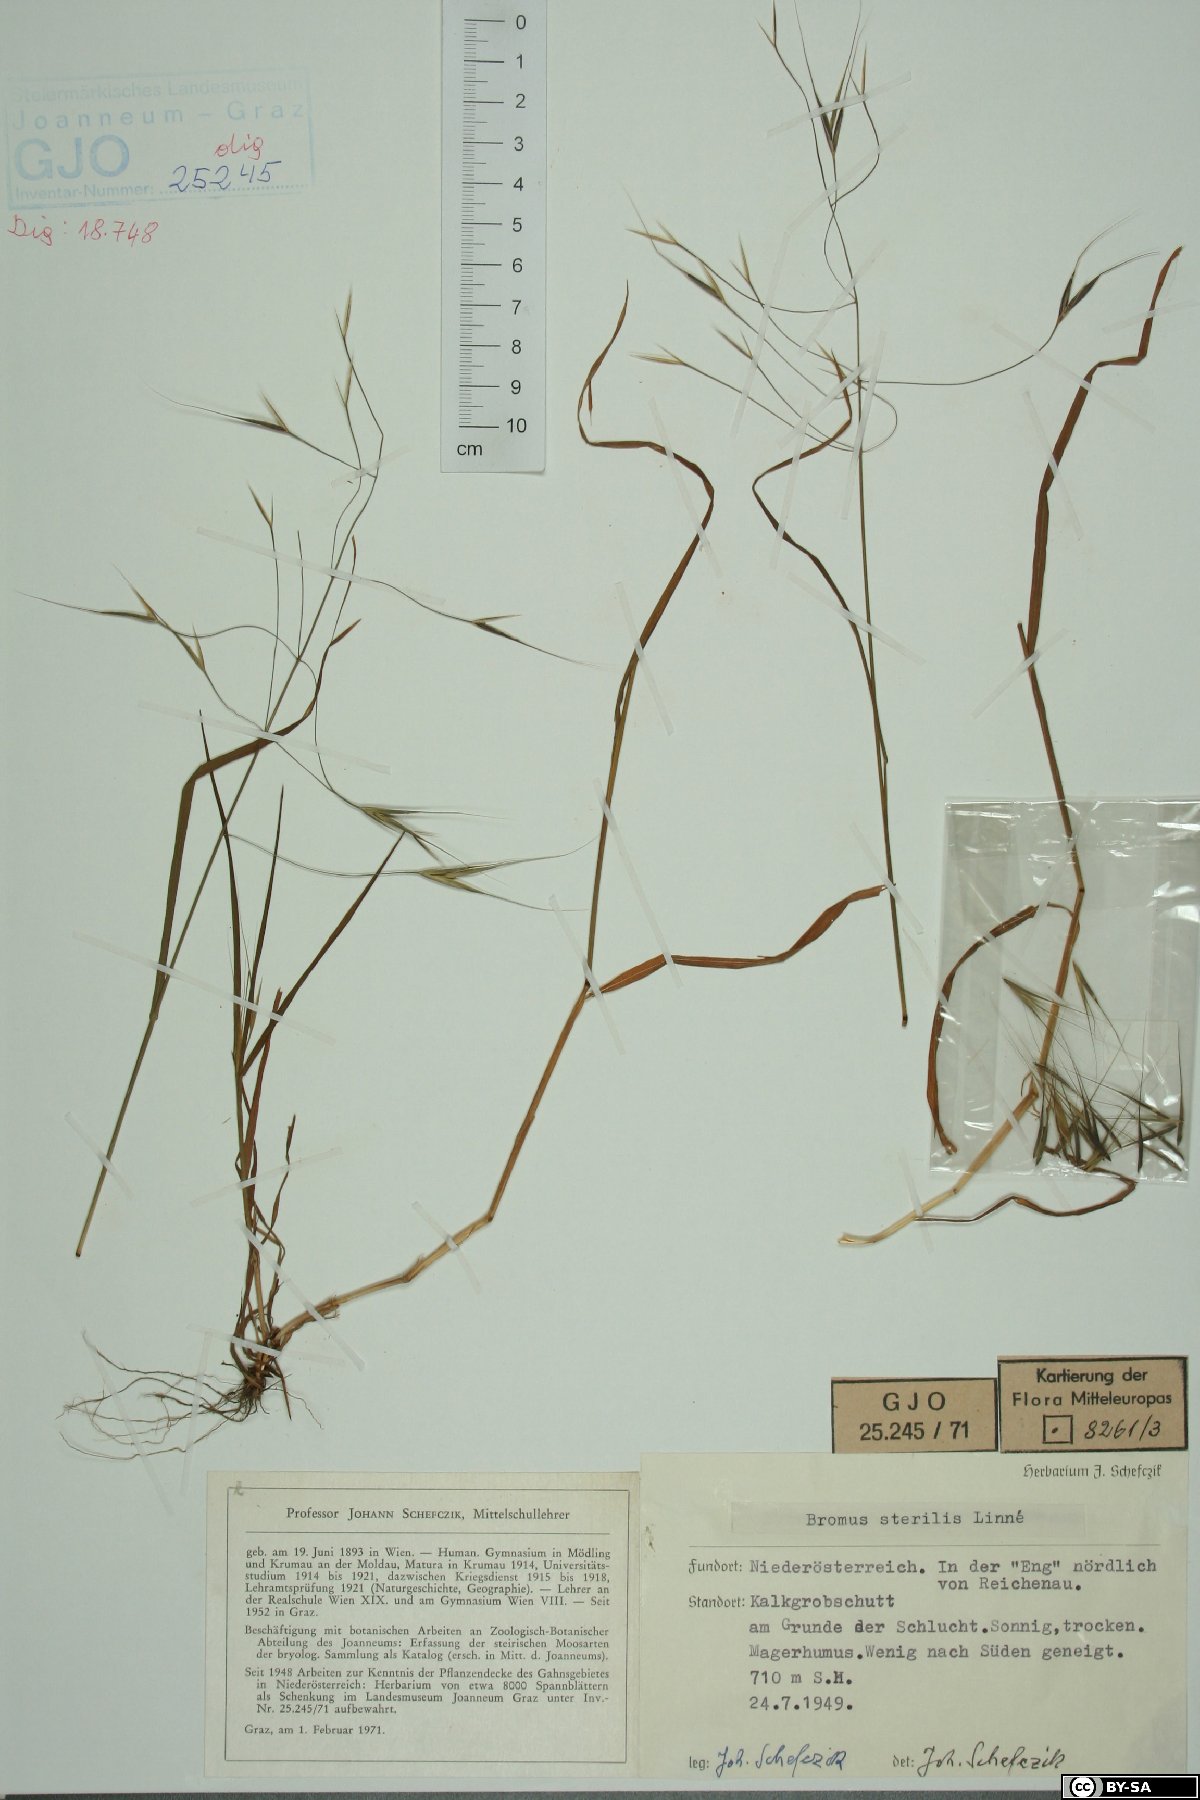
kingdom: Plantae
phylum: Tracheophyta
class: Liliopsida
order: Poales
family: Poaceae
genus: Bromus
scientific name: Bromus sterilis
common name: Poverty brome
